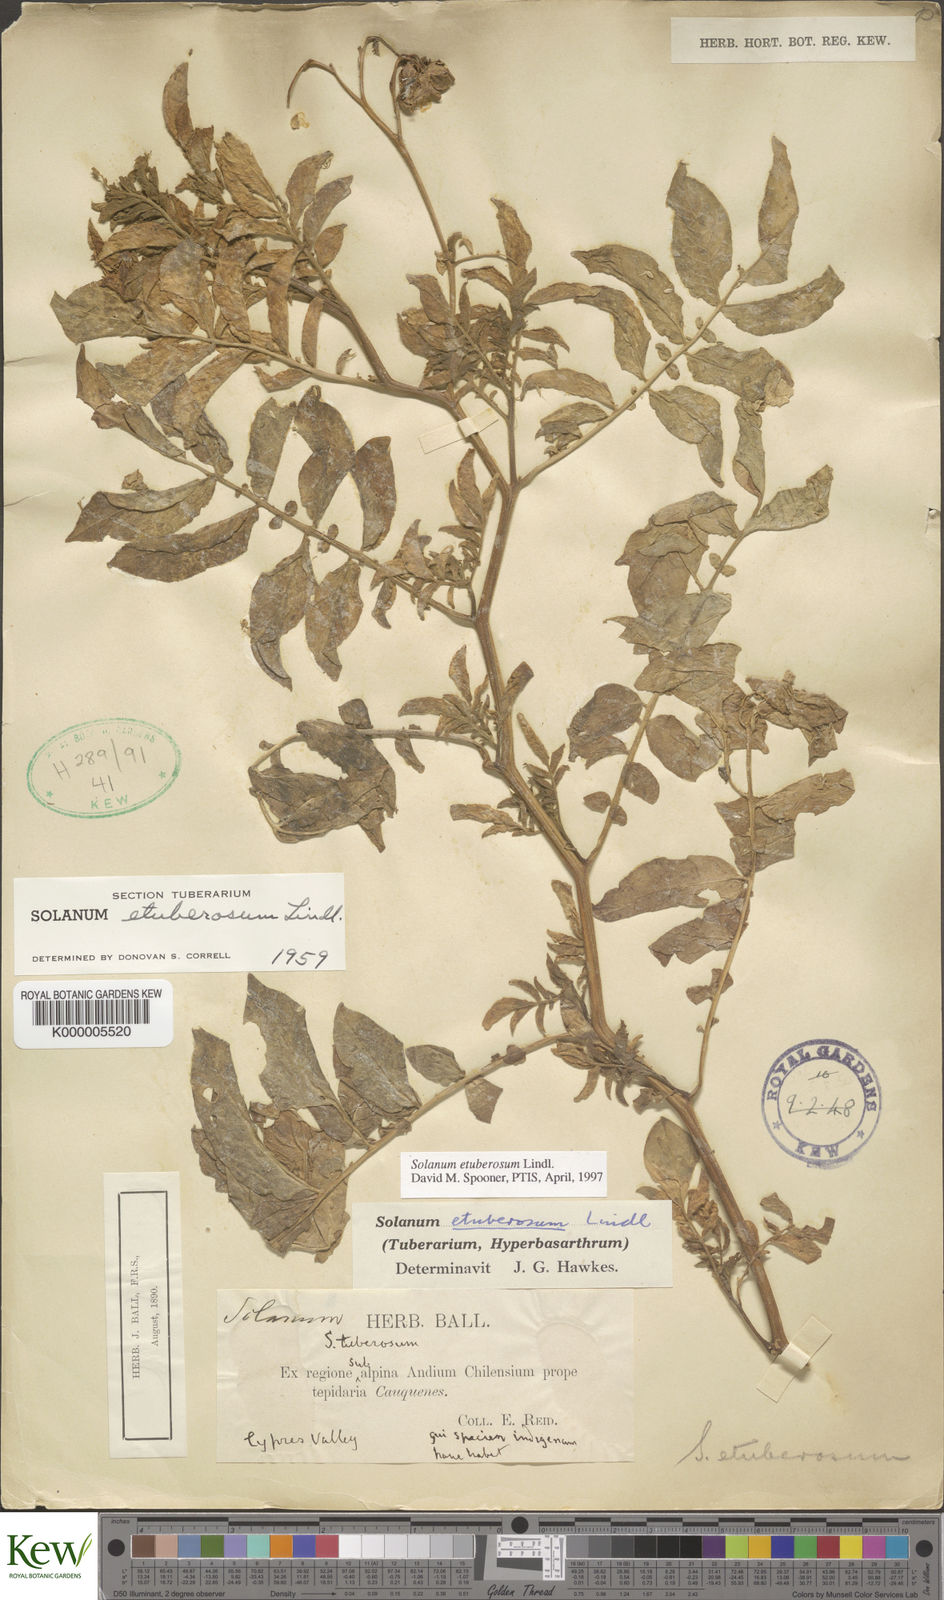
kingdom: Plantae
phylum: Tracheophyta
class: Magnoliopsida
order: Solanales
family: Solanaceae
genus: Solanum
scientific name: Solanum etuberosum
